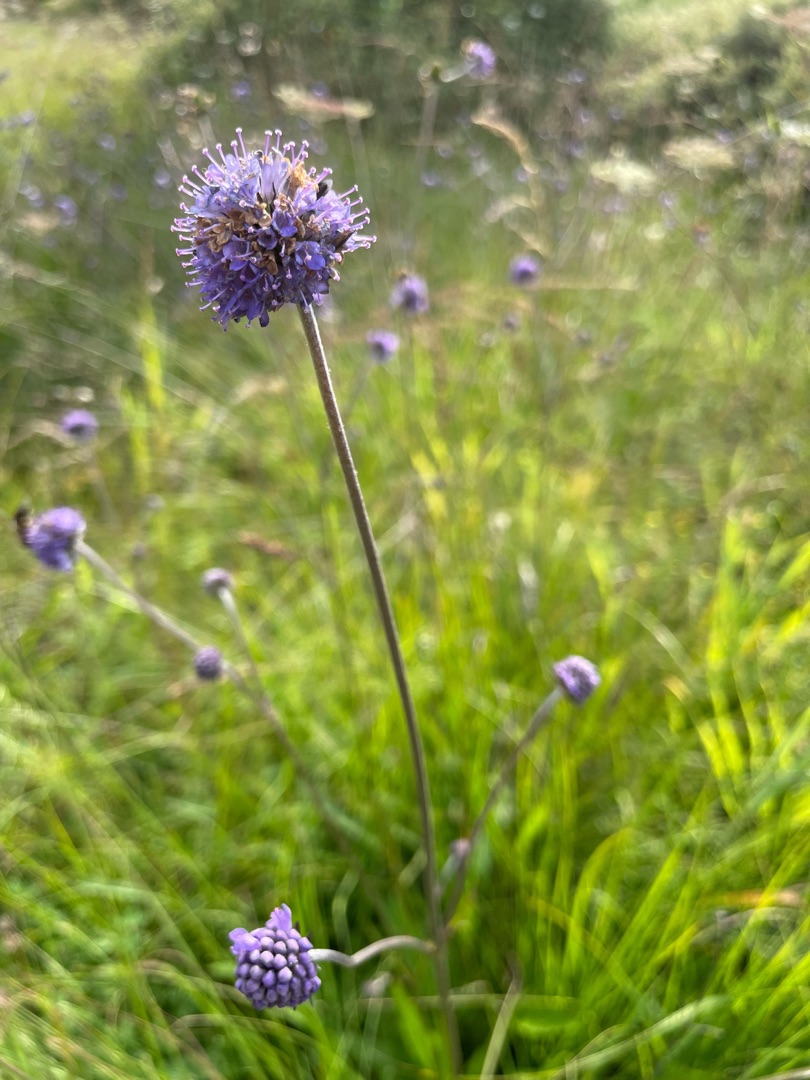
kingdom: Plantae
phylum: Tracheophyta
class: Magnoliopsida
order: Dipsacales
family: Caprifoliaceae
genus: Succisa
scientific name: Succisa pratensis
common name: Djævelsbid
